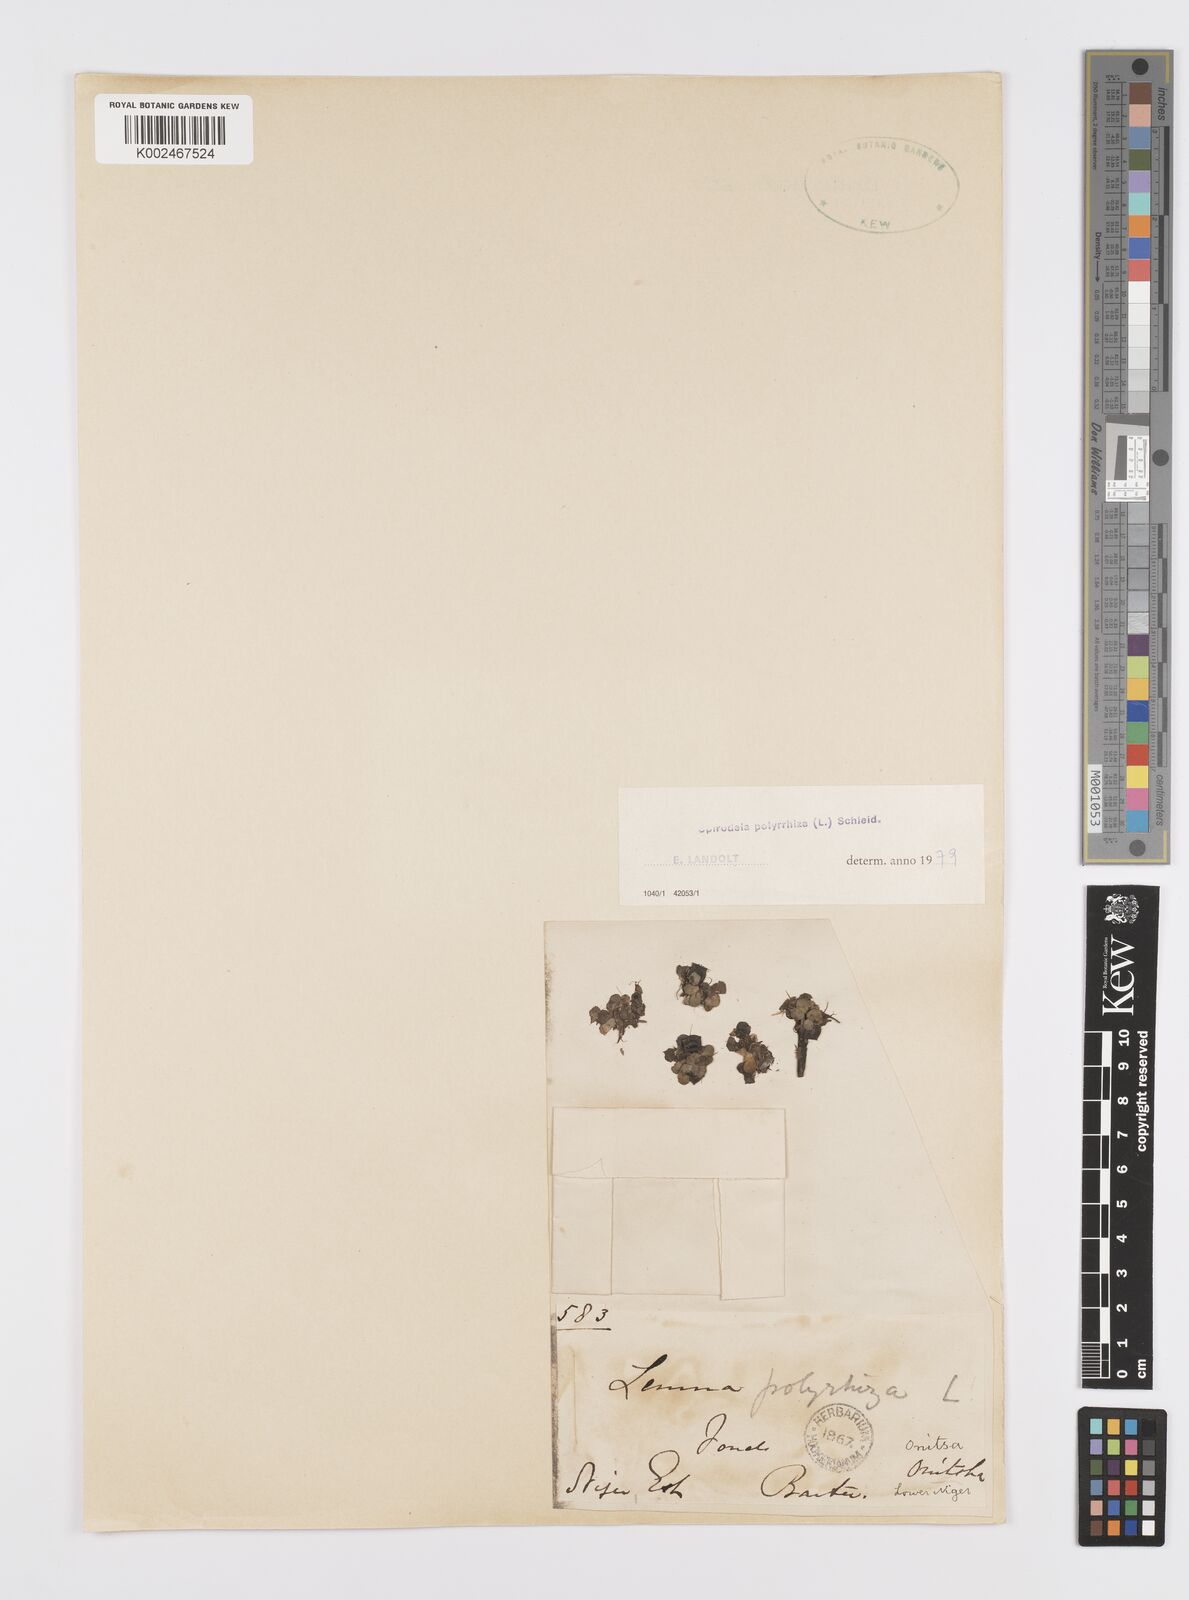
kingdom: Plantae
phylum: Tracheophyta
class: Liliopsida
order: Alismatales
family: Araceae
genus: Spirodela
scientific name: Spirodela polyrhiza
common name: Great duckweed
